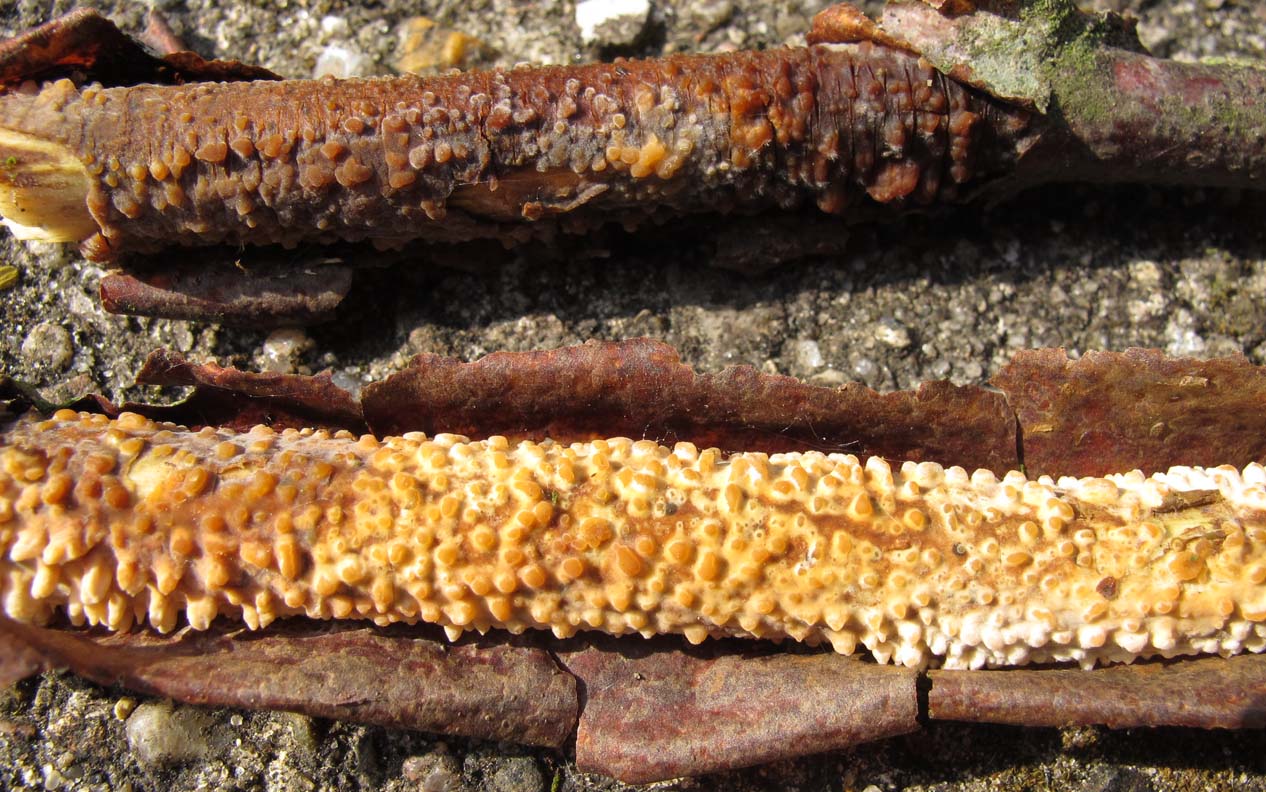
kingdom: Fungi
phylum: Basidiomycota
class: Agaricomycetes
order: Russulales
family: Peniophoraceae
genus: Peniophora
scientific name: Peniophora laeta
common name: tandet voksskind
